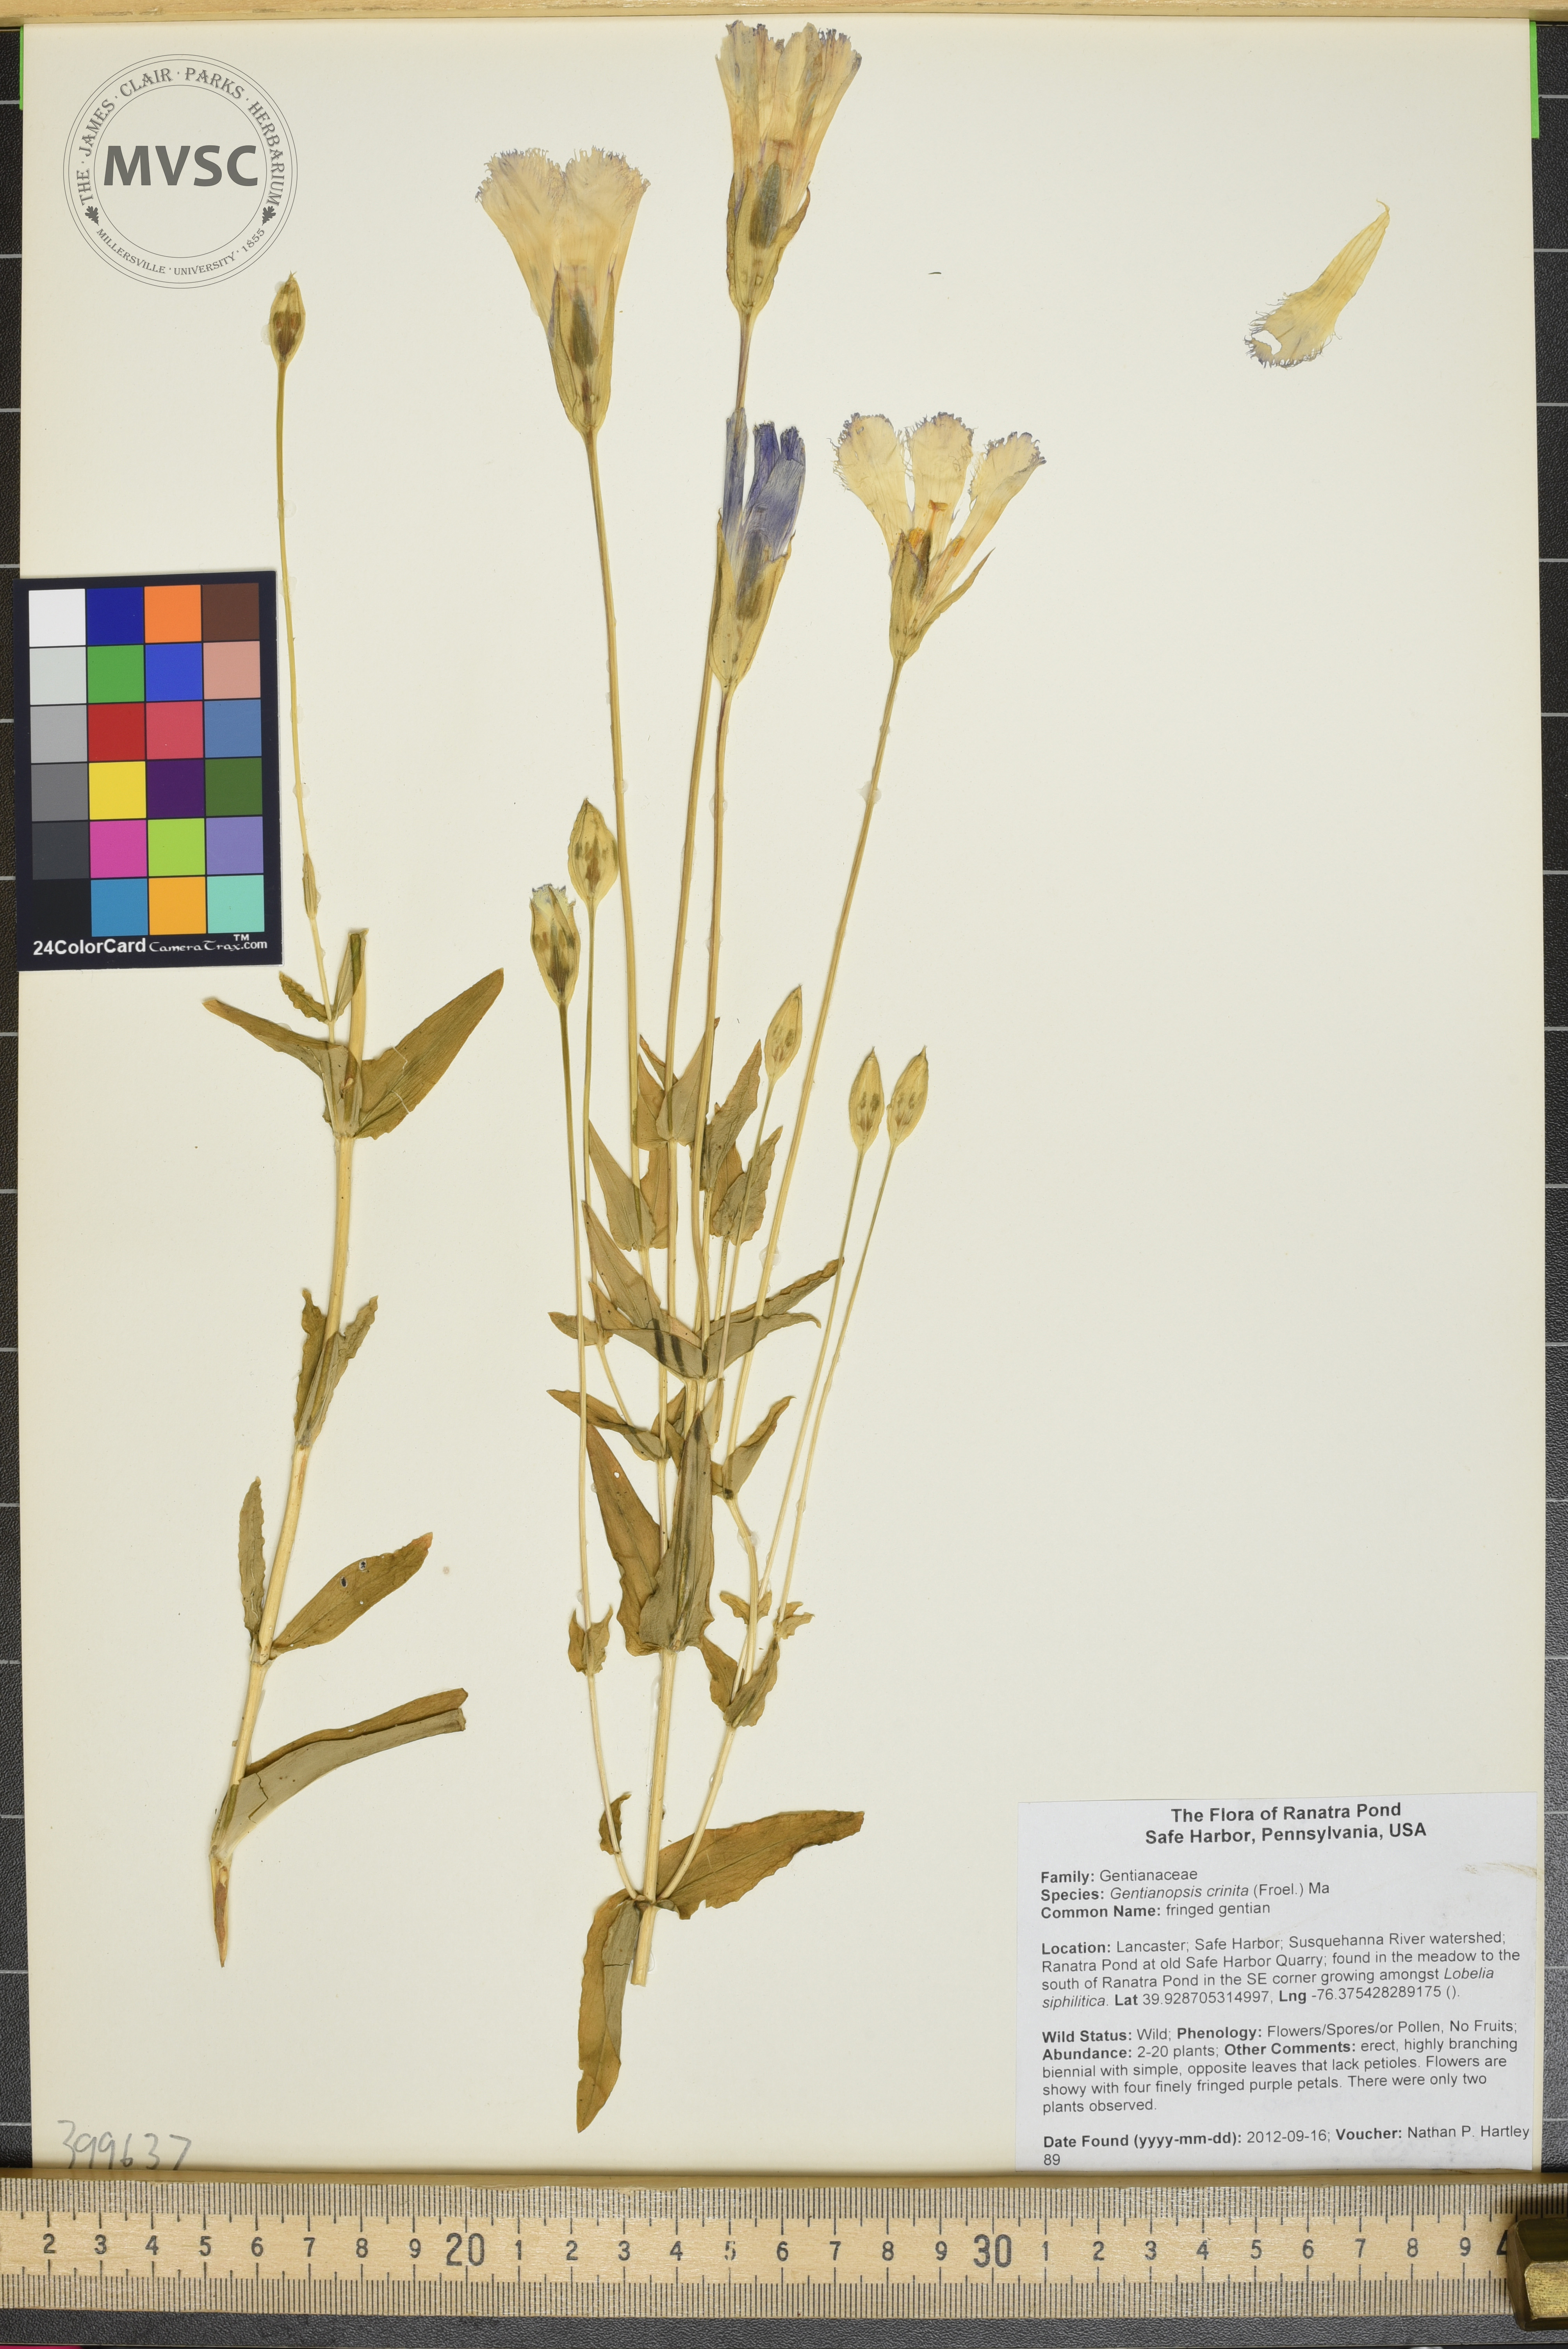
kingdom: Plantae
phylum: Tracheophyta
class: Magnoliopsida
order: Gentianales
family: Gentianaceae
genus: Gentianopsis
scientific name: Gentianopsis crinita
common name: Fringed-gentian
